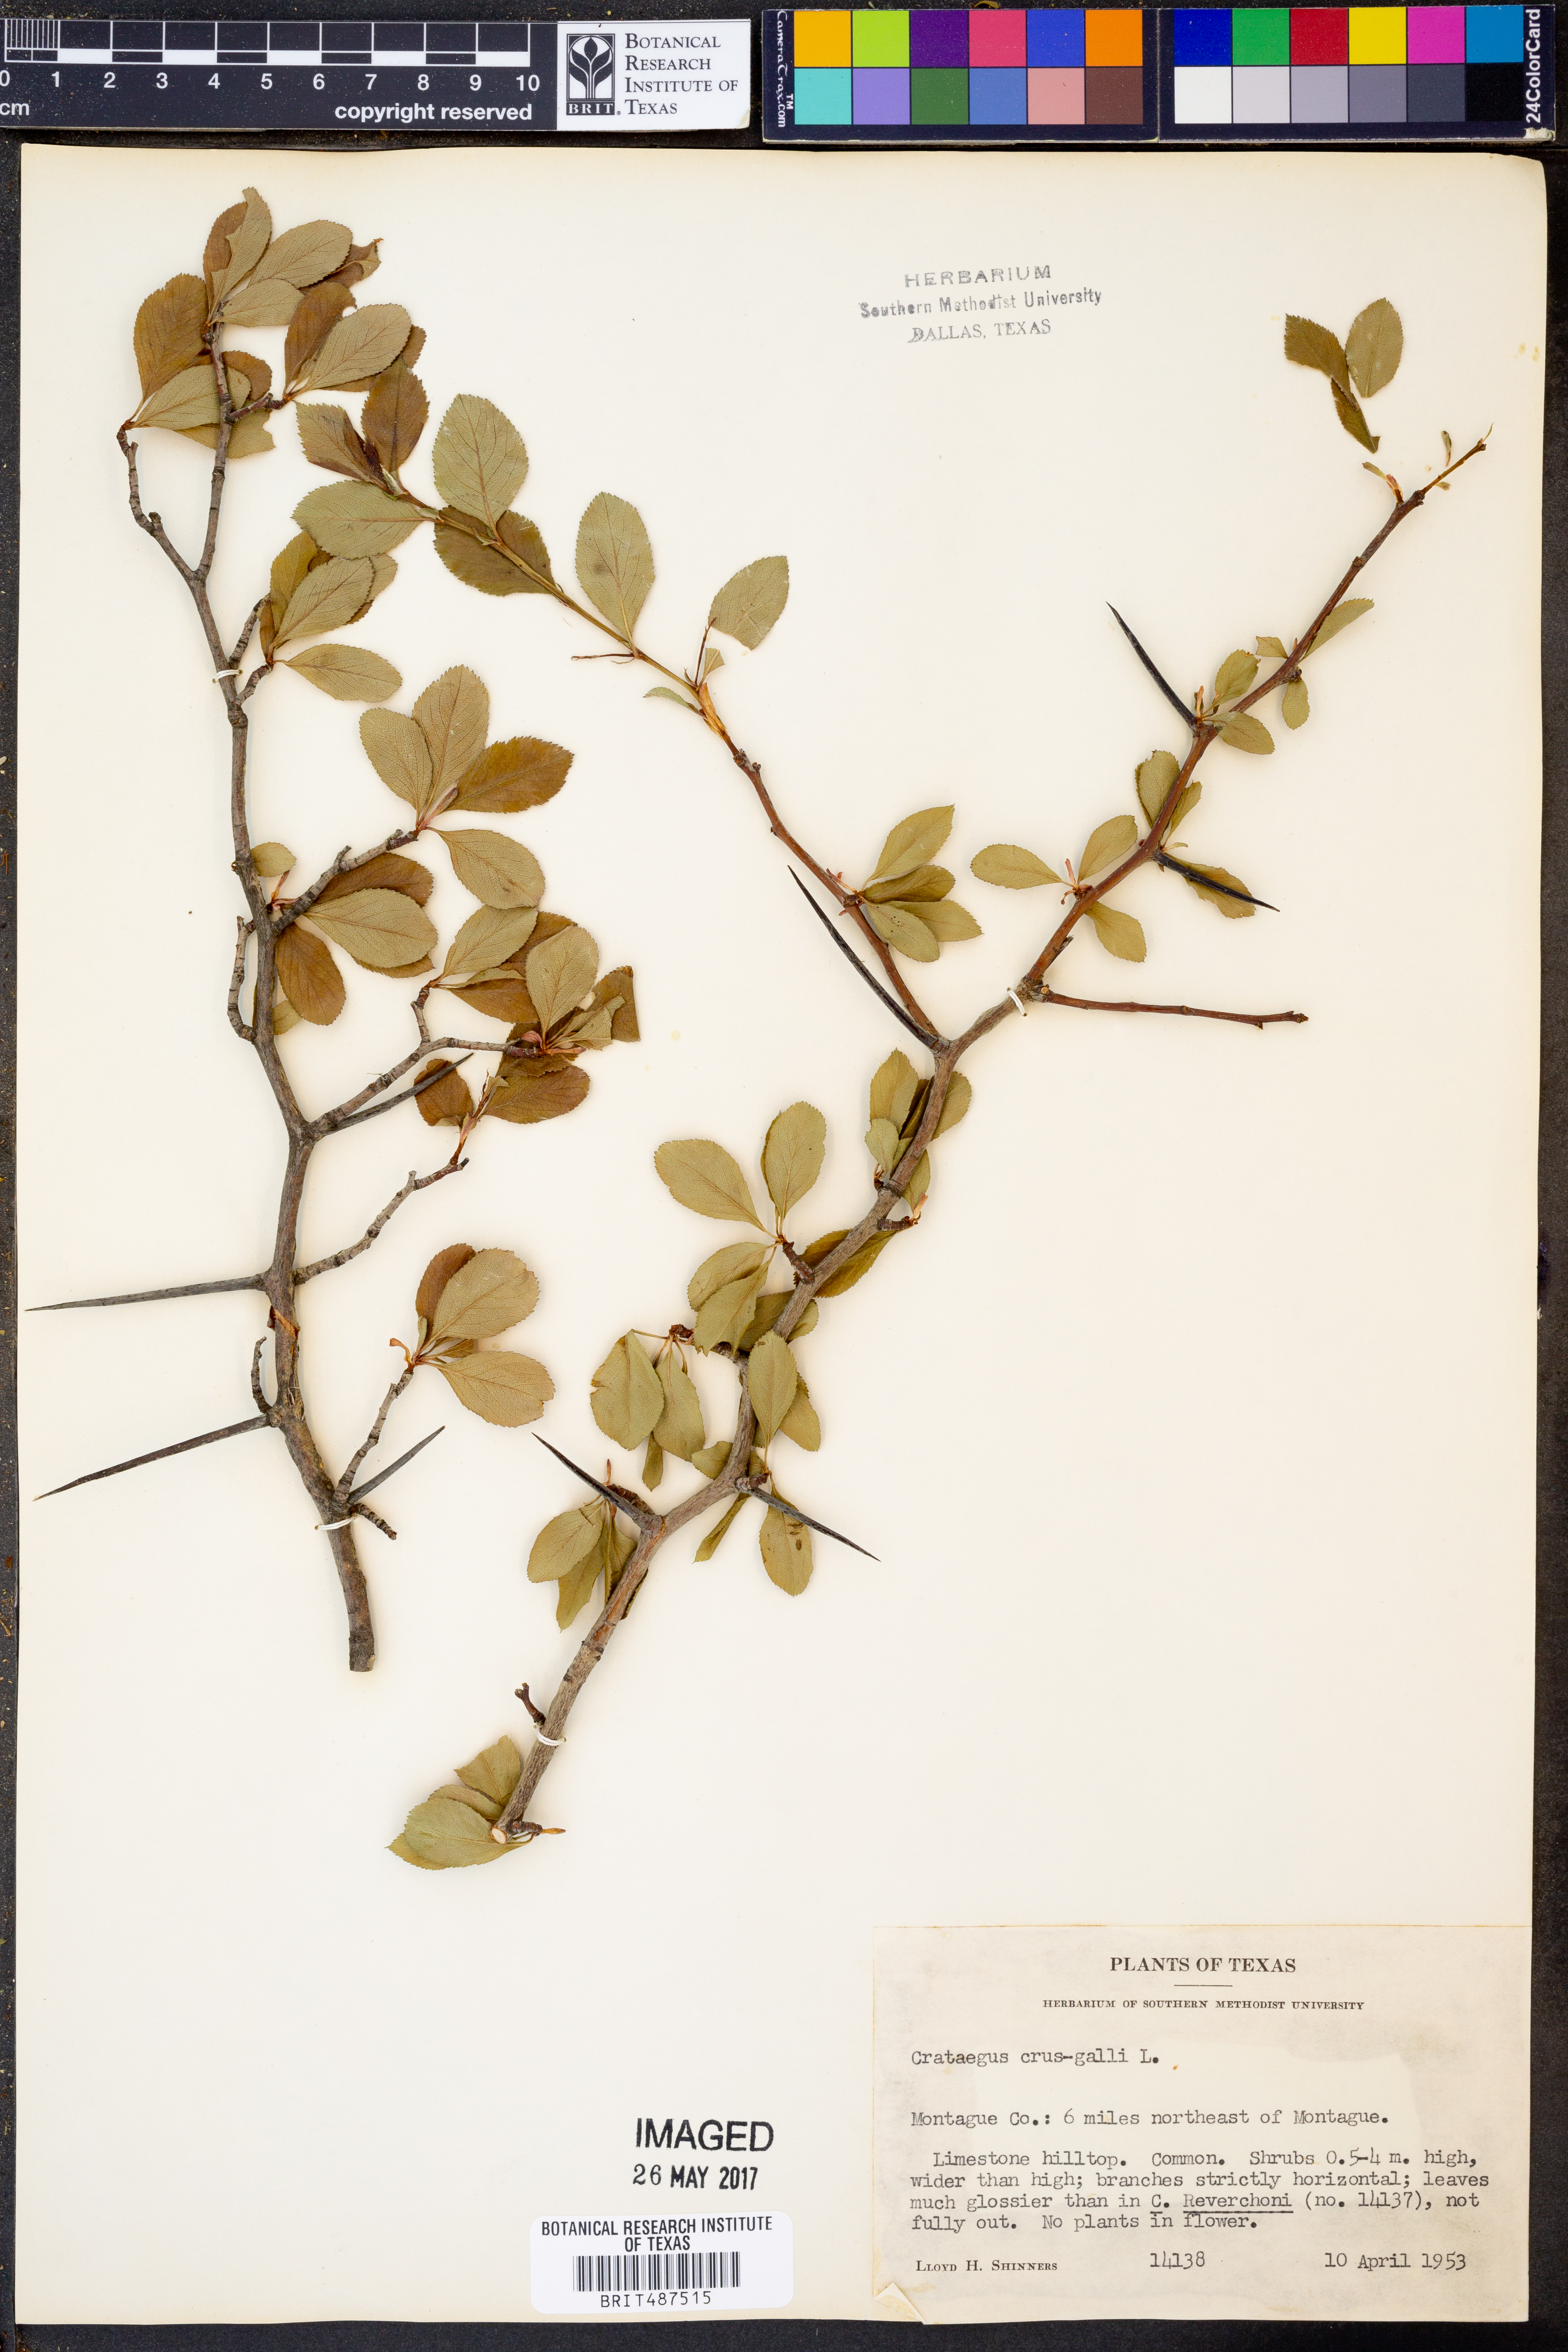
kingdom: Plantae
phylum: Tracheophyta
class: Magnoliopsida
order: Rosales
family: Rosaceae
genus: Crataegus
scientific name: Crataegus crus-galli
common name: Cockspurthorn
